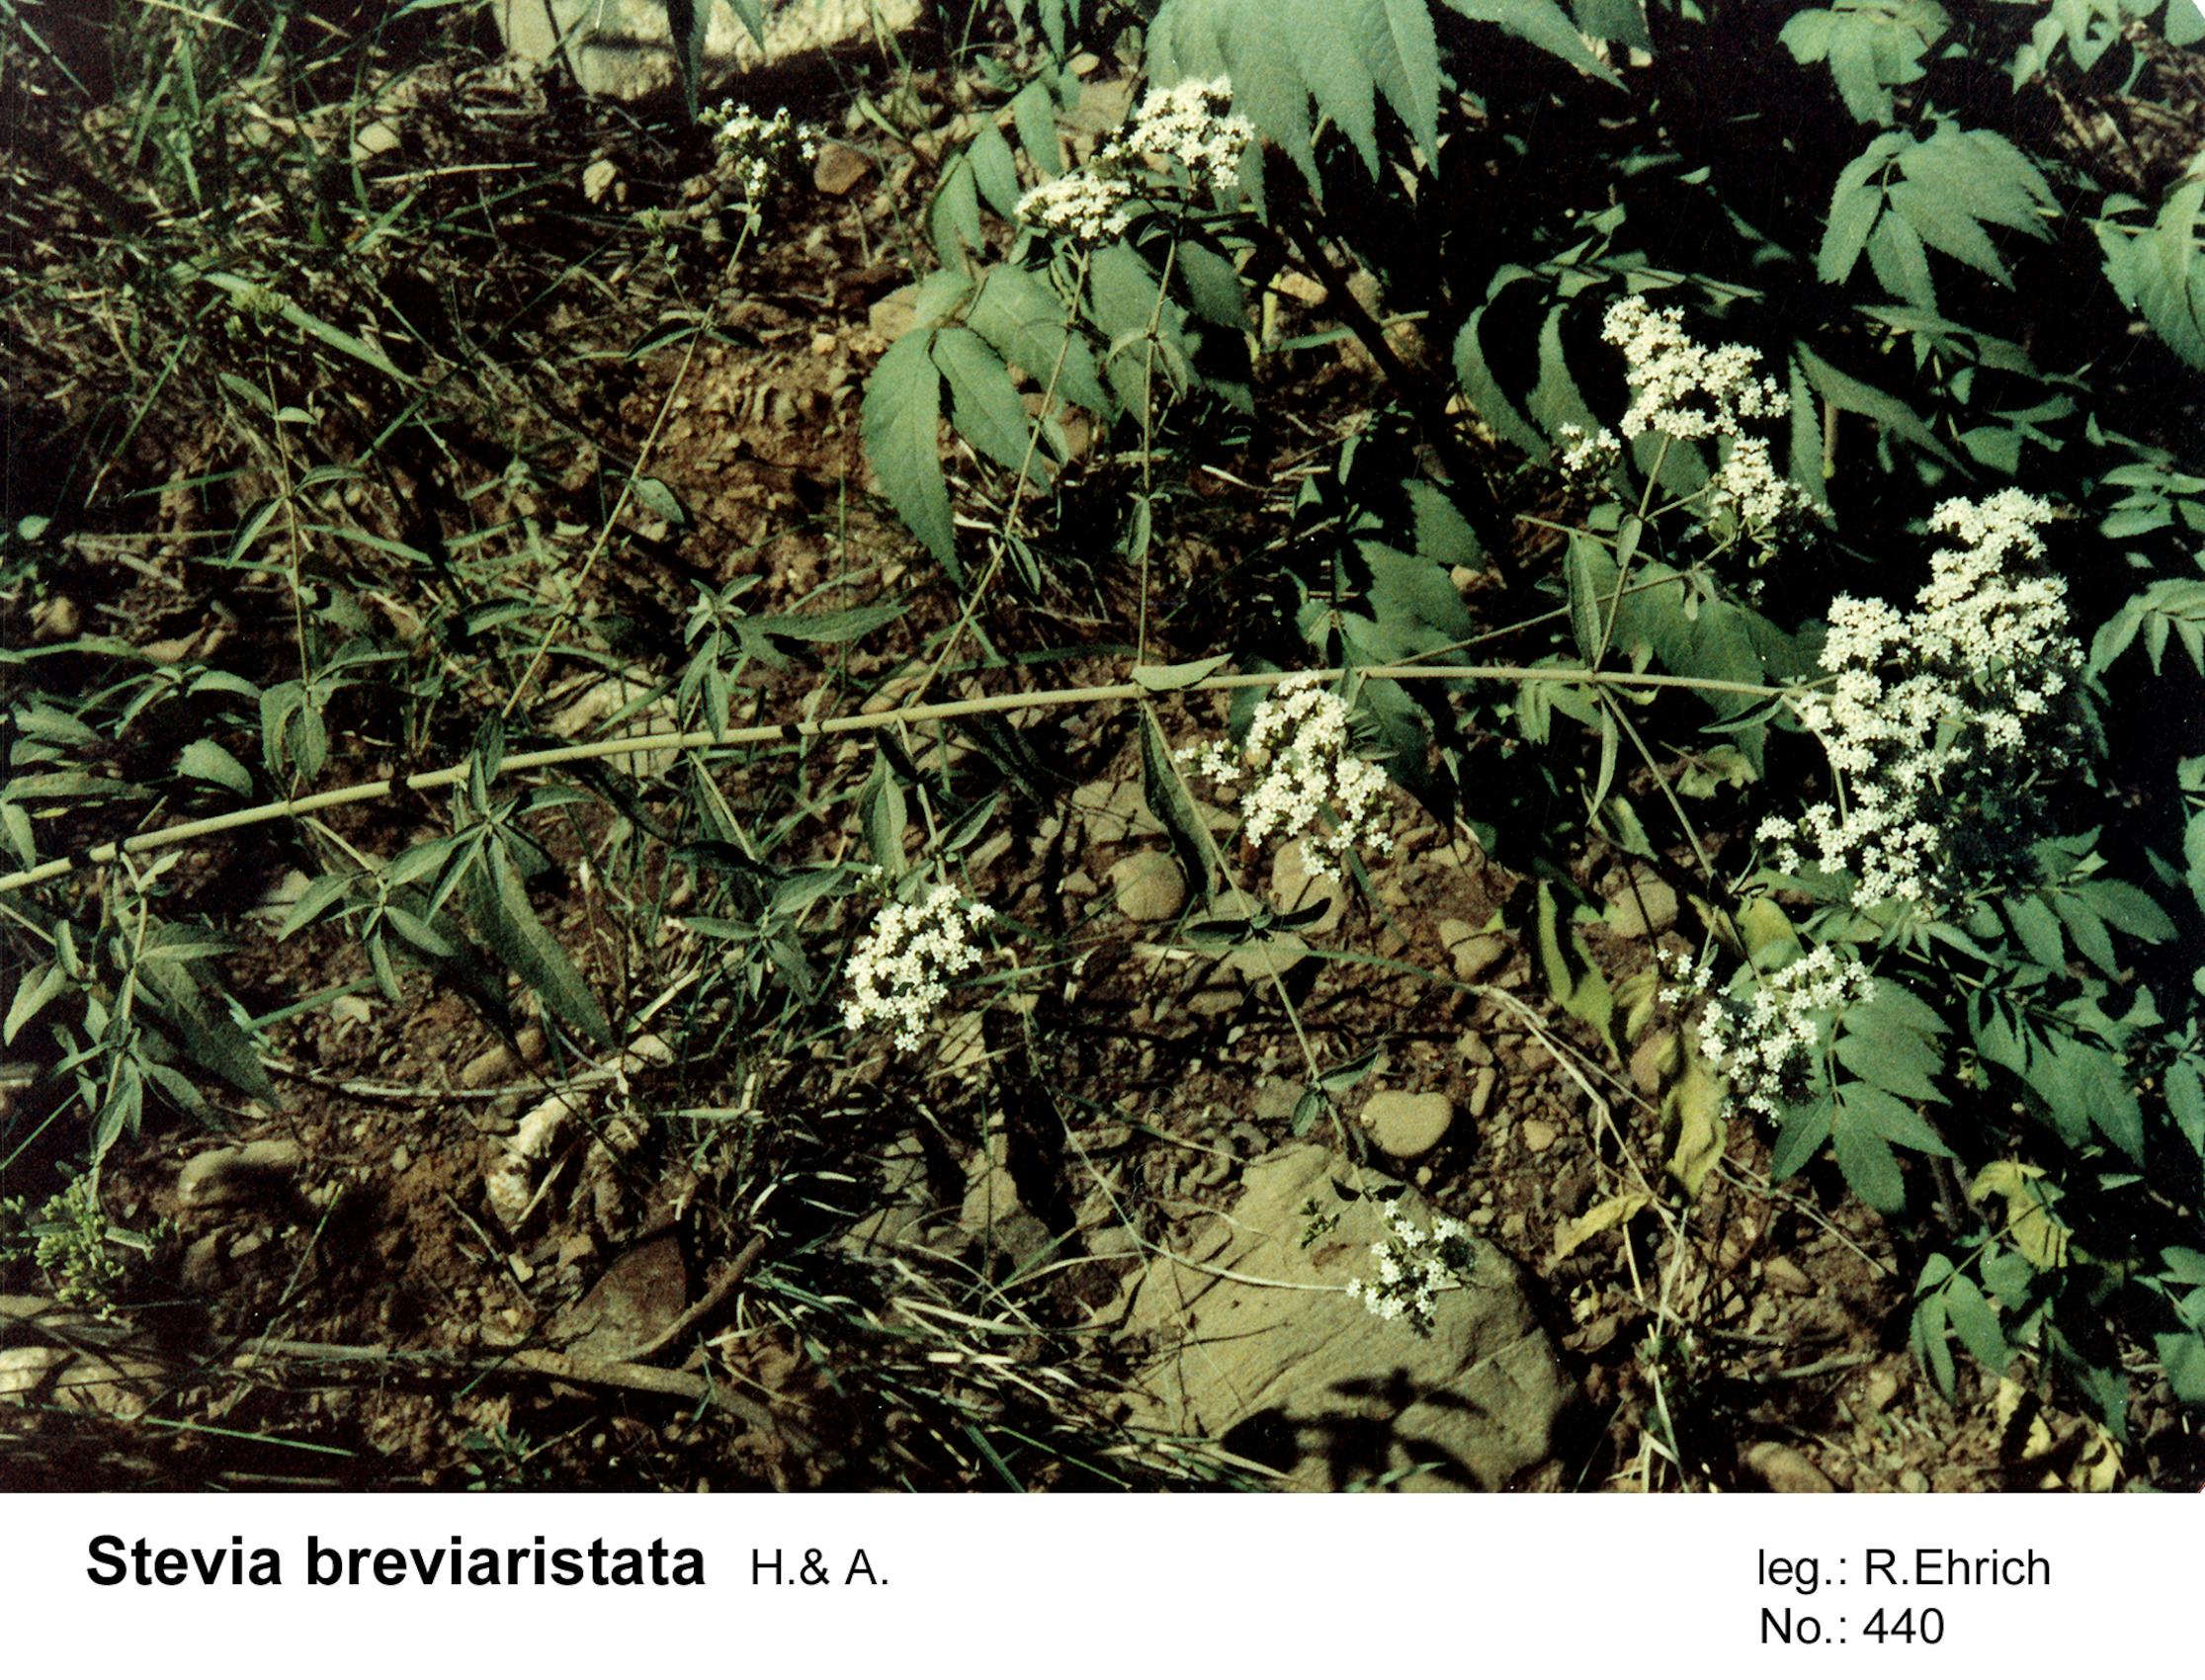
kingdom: Plantae
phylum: Tracheophyta
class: Magnoliopsida
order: Asterales
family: Asteraceae
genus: Stevia
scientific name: Stevia breviaristata
